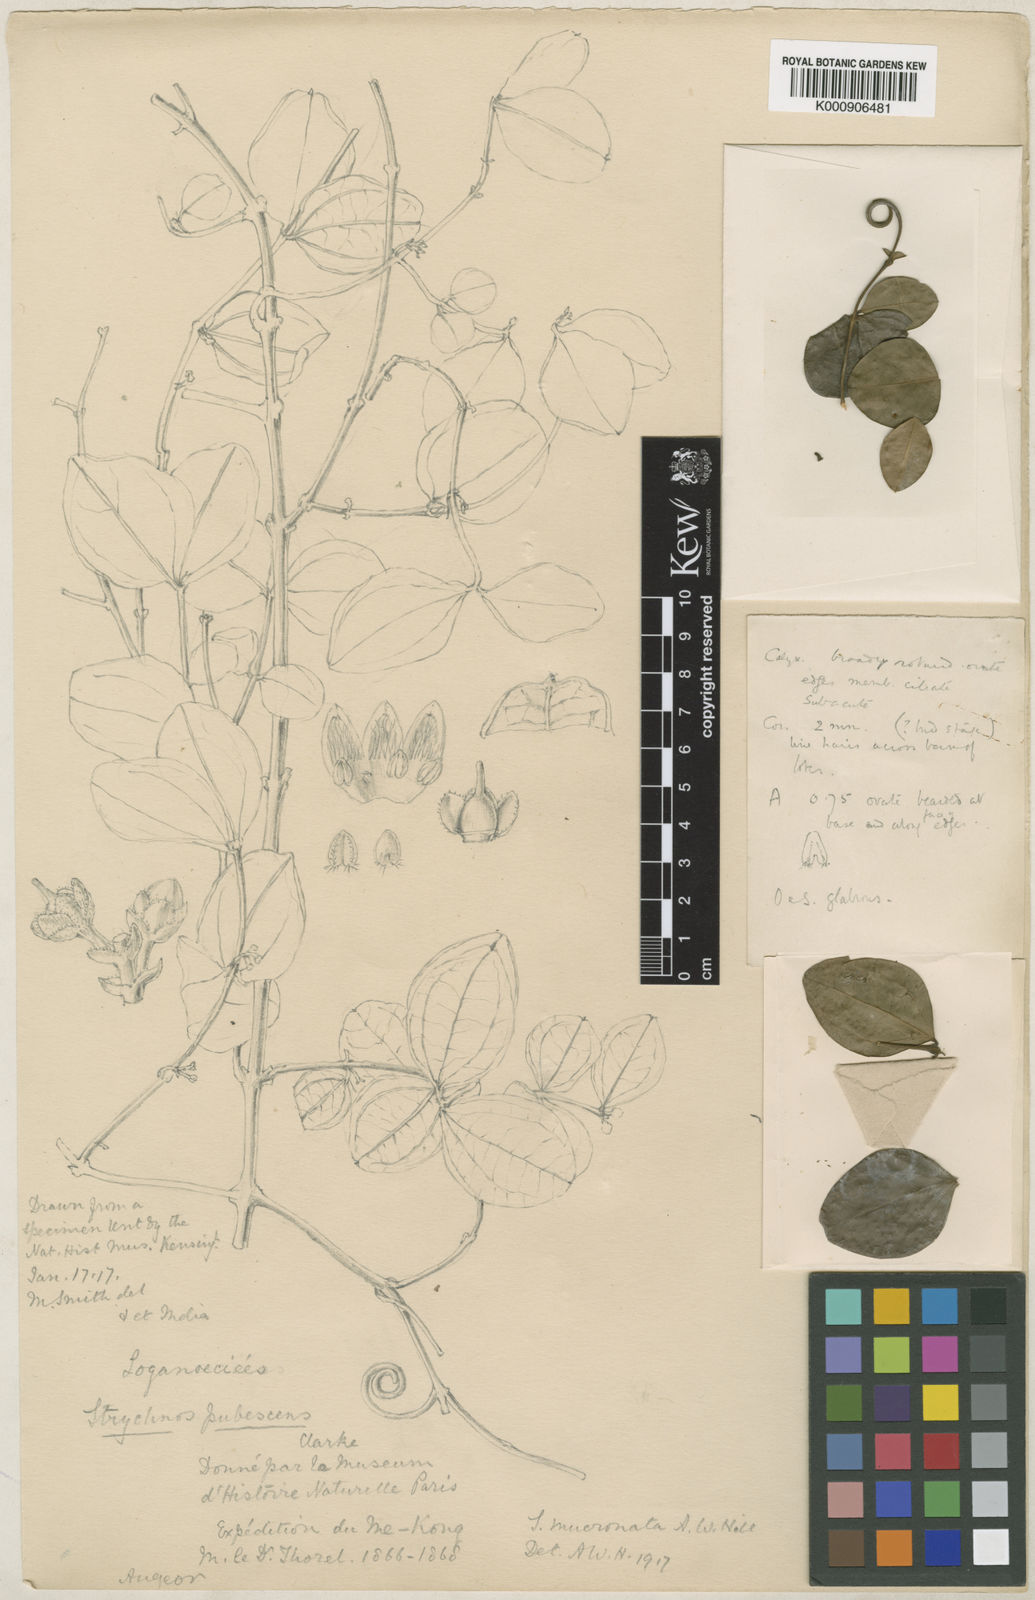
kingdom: Plantae
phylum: Tracheophyta
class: Magnoliopsida
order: Gentianales
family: Loganiaceae
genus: Strychnos
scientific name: Strychnos axillaris
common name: Strychninebush
